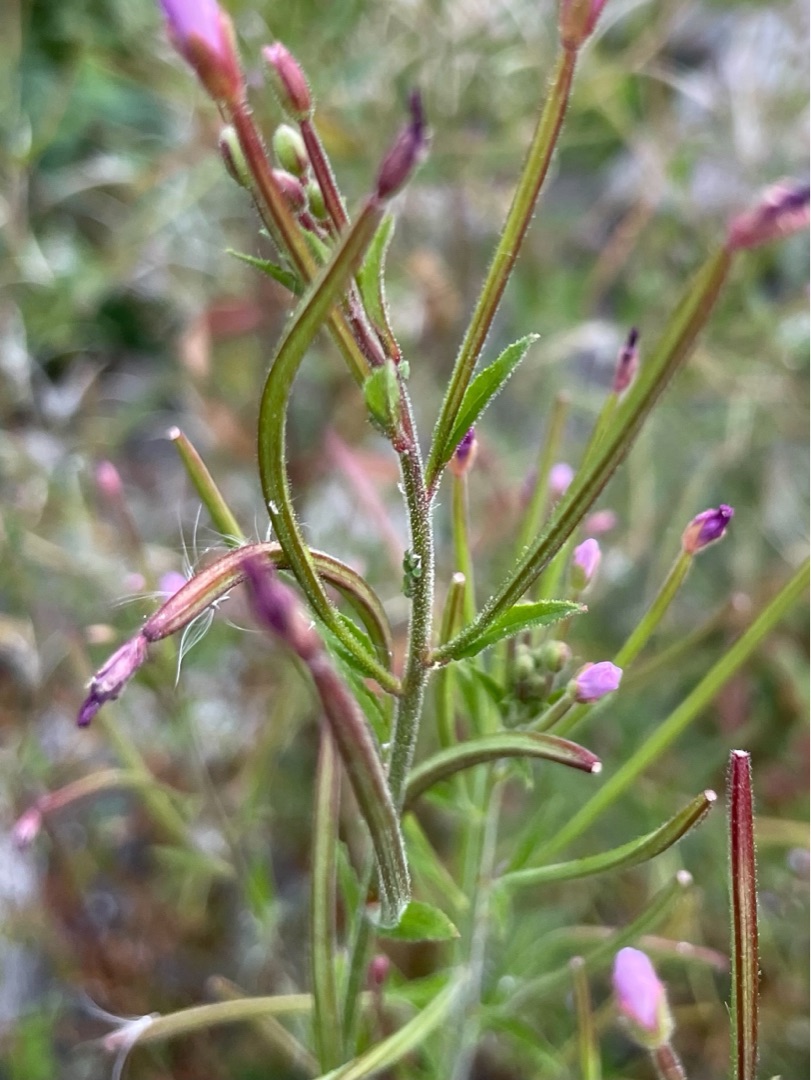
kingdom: Plantae
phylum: Tracheophyta
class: Magnoliopsida
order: Myrtales
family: Onagraceae
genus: Epilobium
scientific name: Epilobium ciliatum
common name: Kirtlet dueurt
